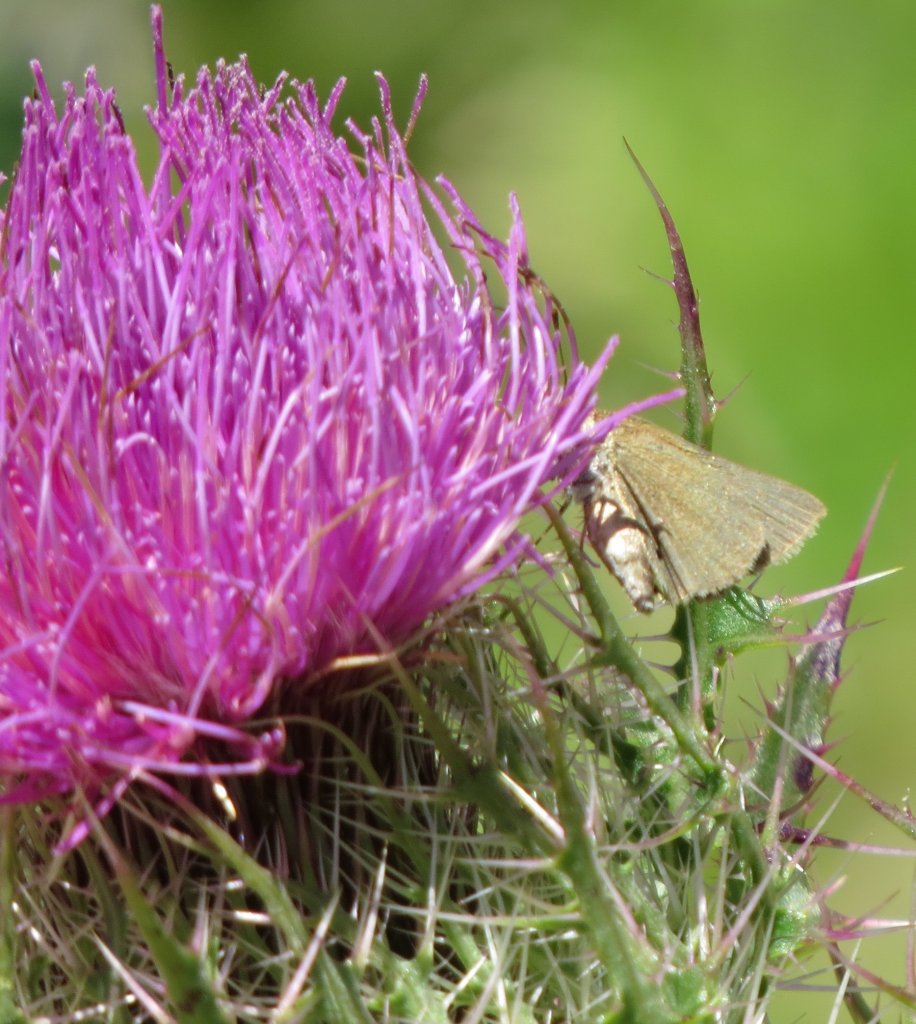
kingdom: Animalia
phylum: Arthropoda
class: Insecta
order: Lepidoptera
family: Hesperiidae
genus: Polites
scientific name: Polites themistocles
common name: Tawny-edged Skipper
